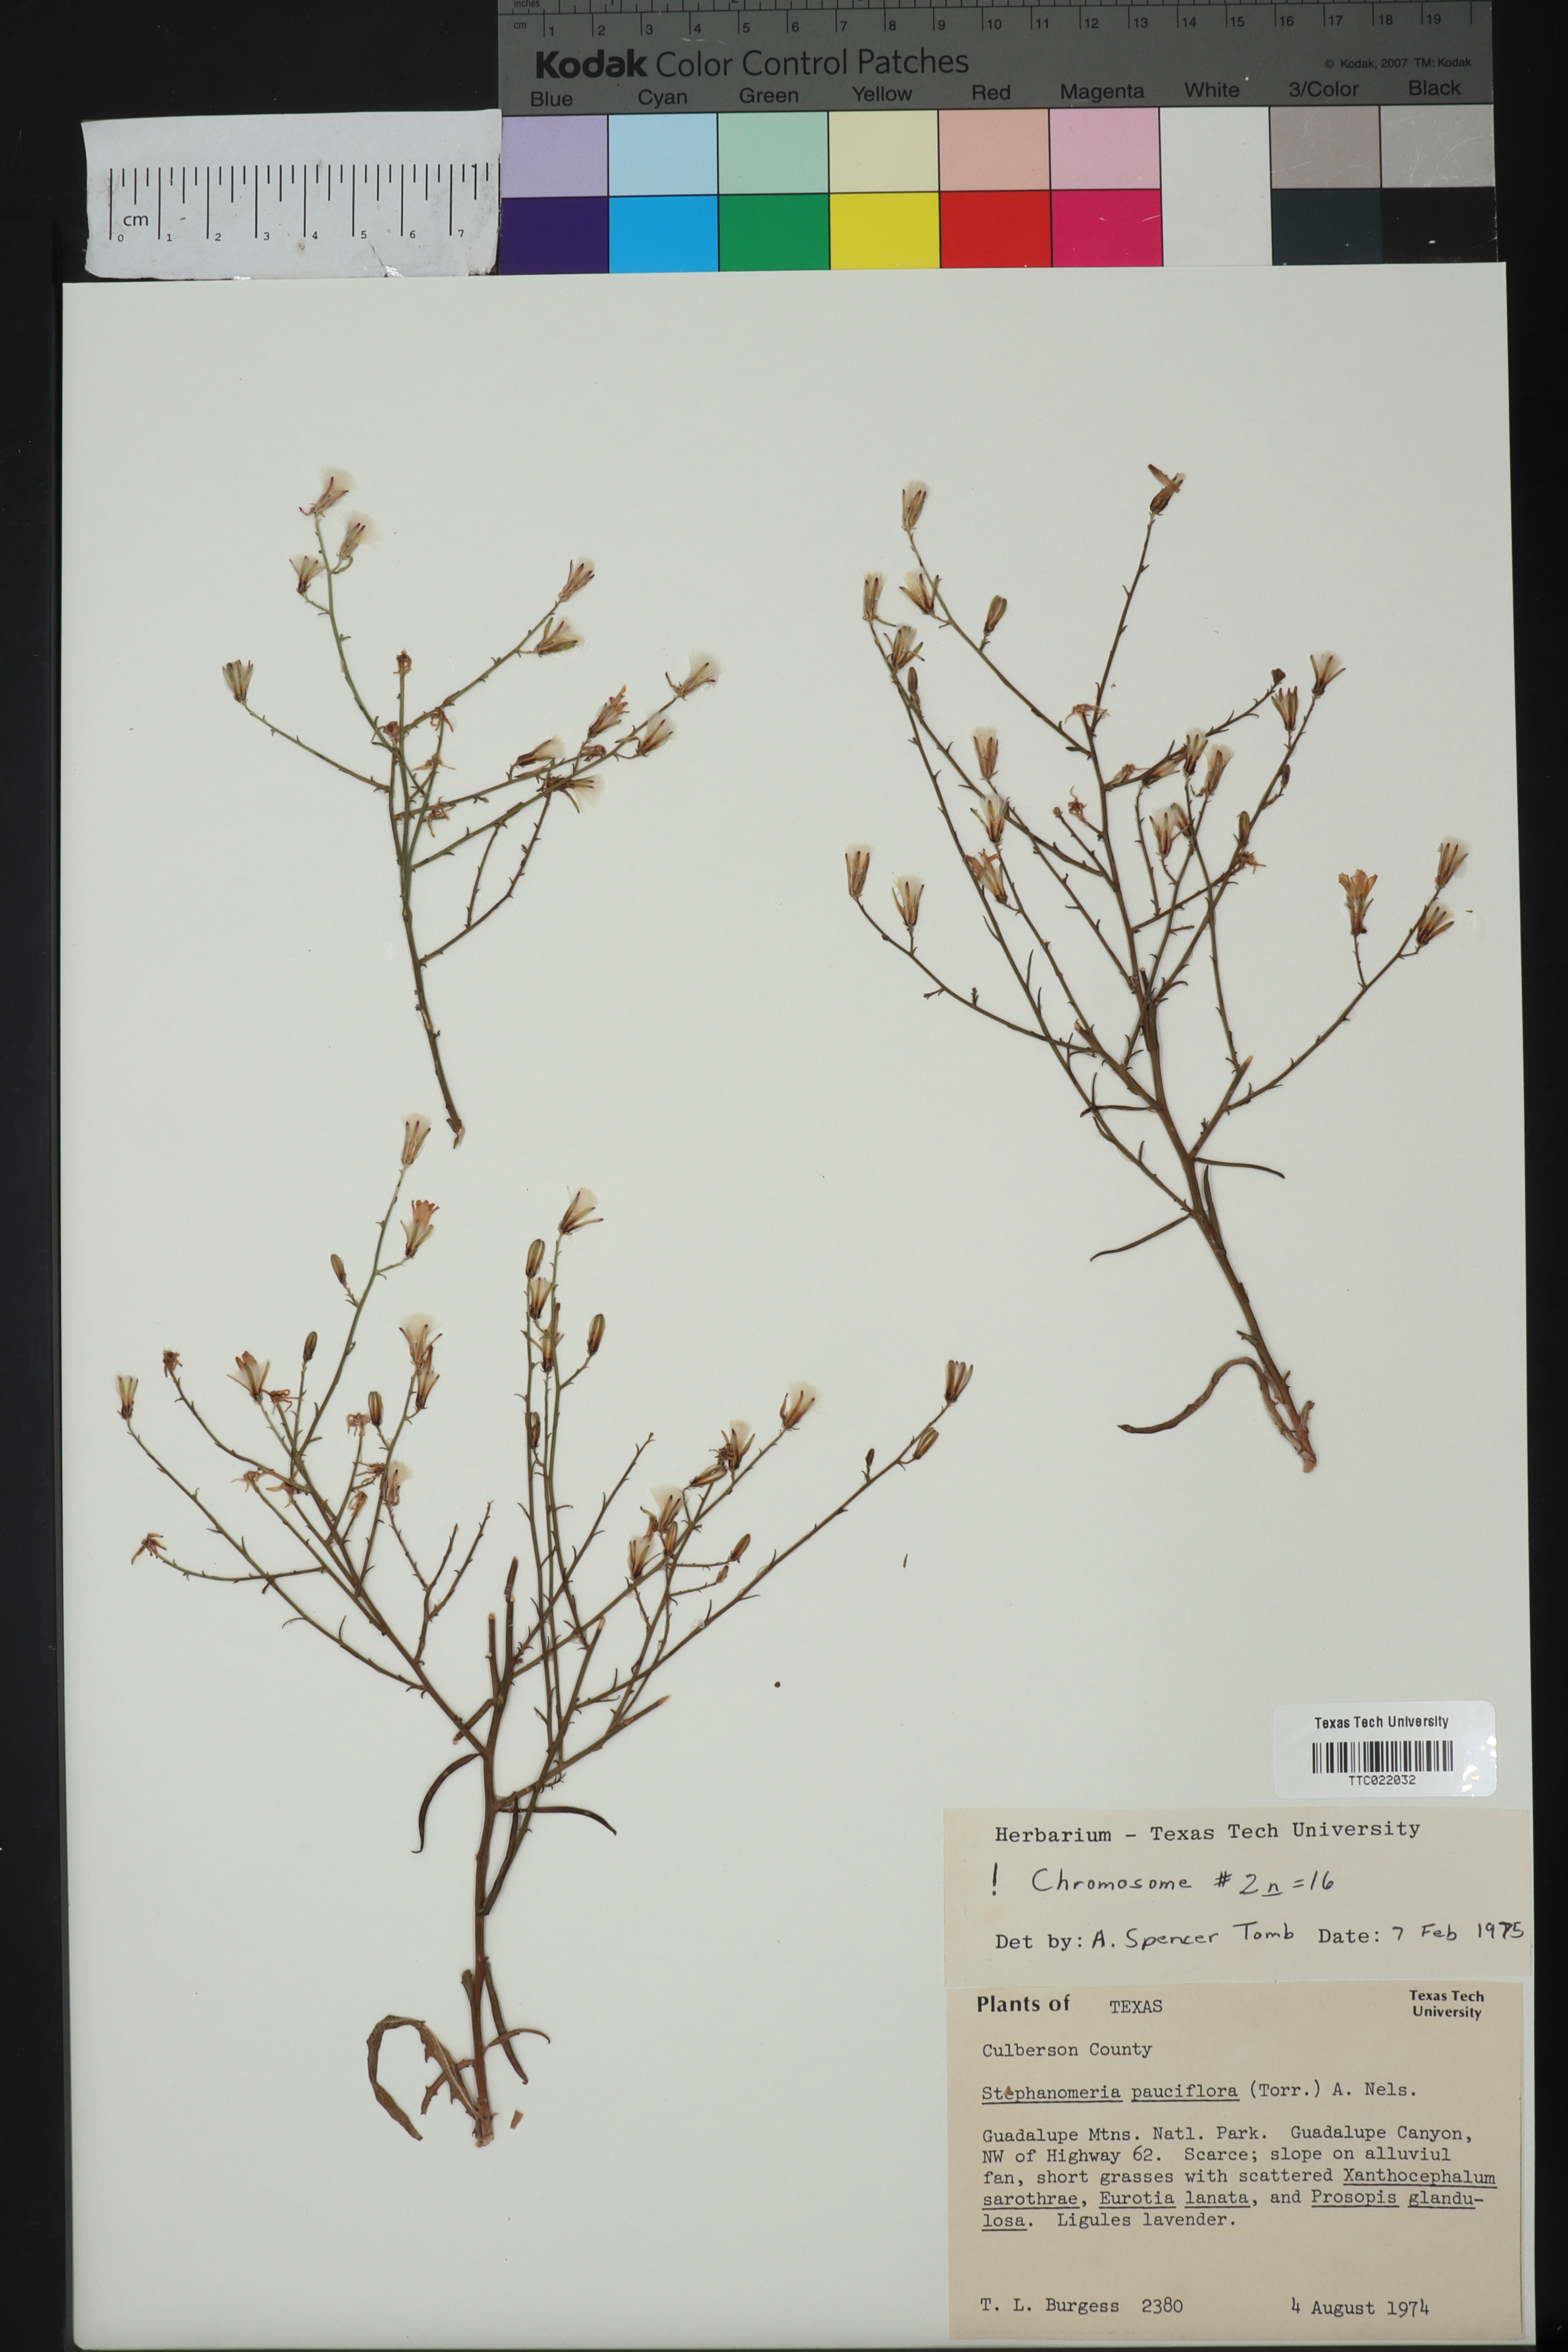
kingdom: Plantae
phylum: Tracheophyta
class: Magnoliopsida
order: Asterales
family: Asteraceae
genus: Stephanomeria
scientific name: Stephanomeria pauciflora
